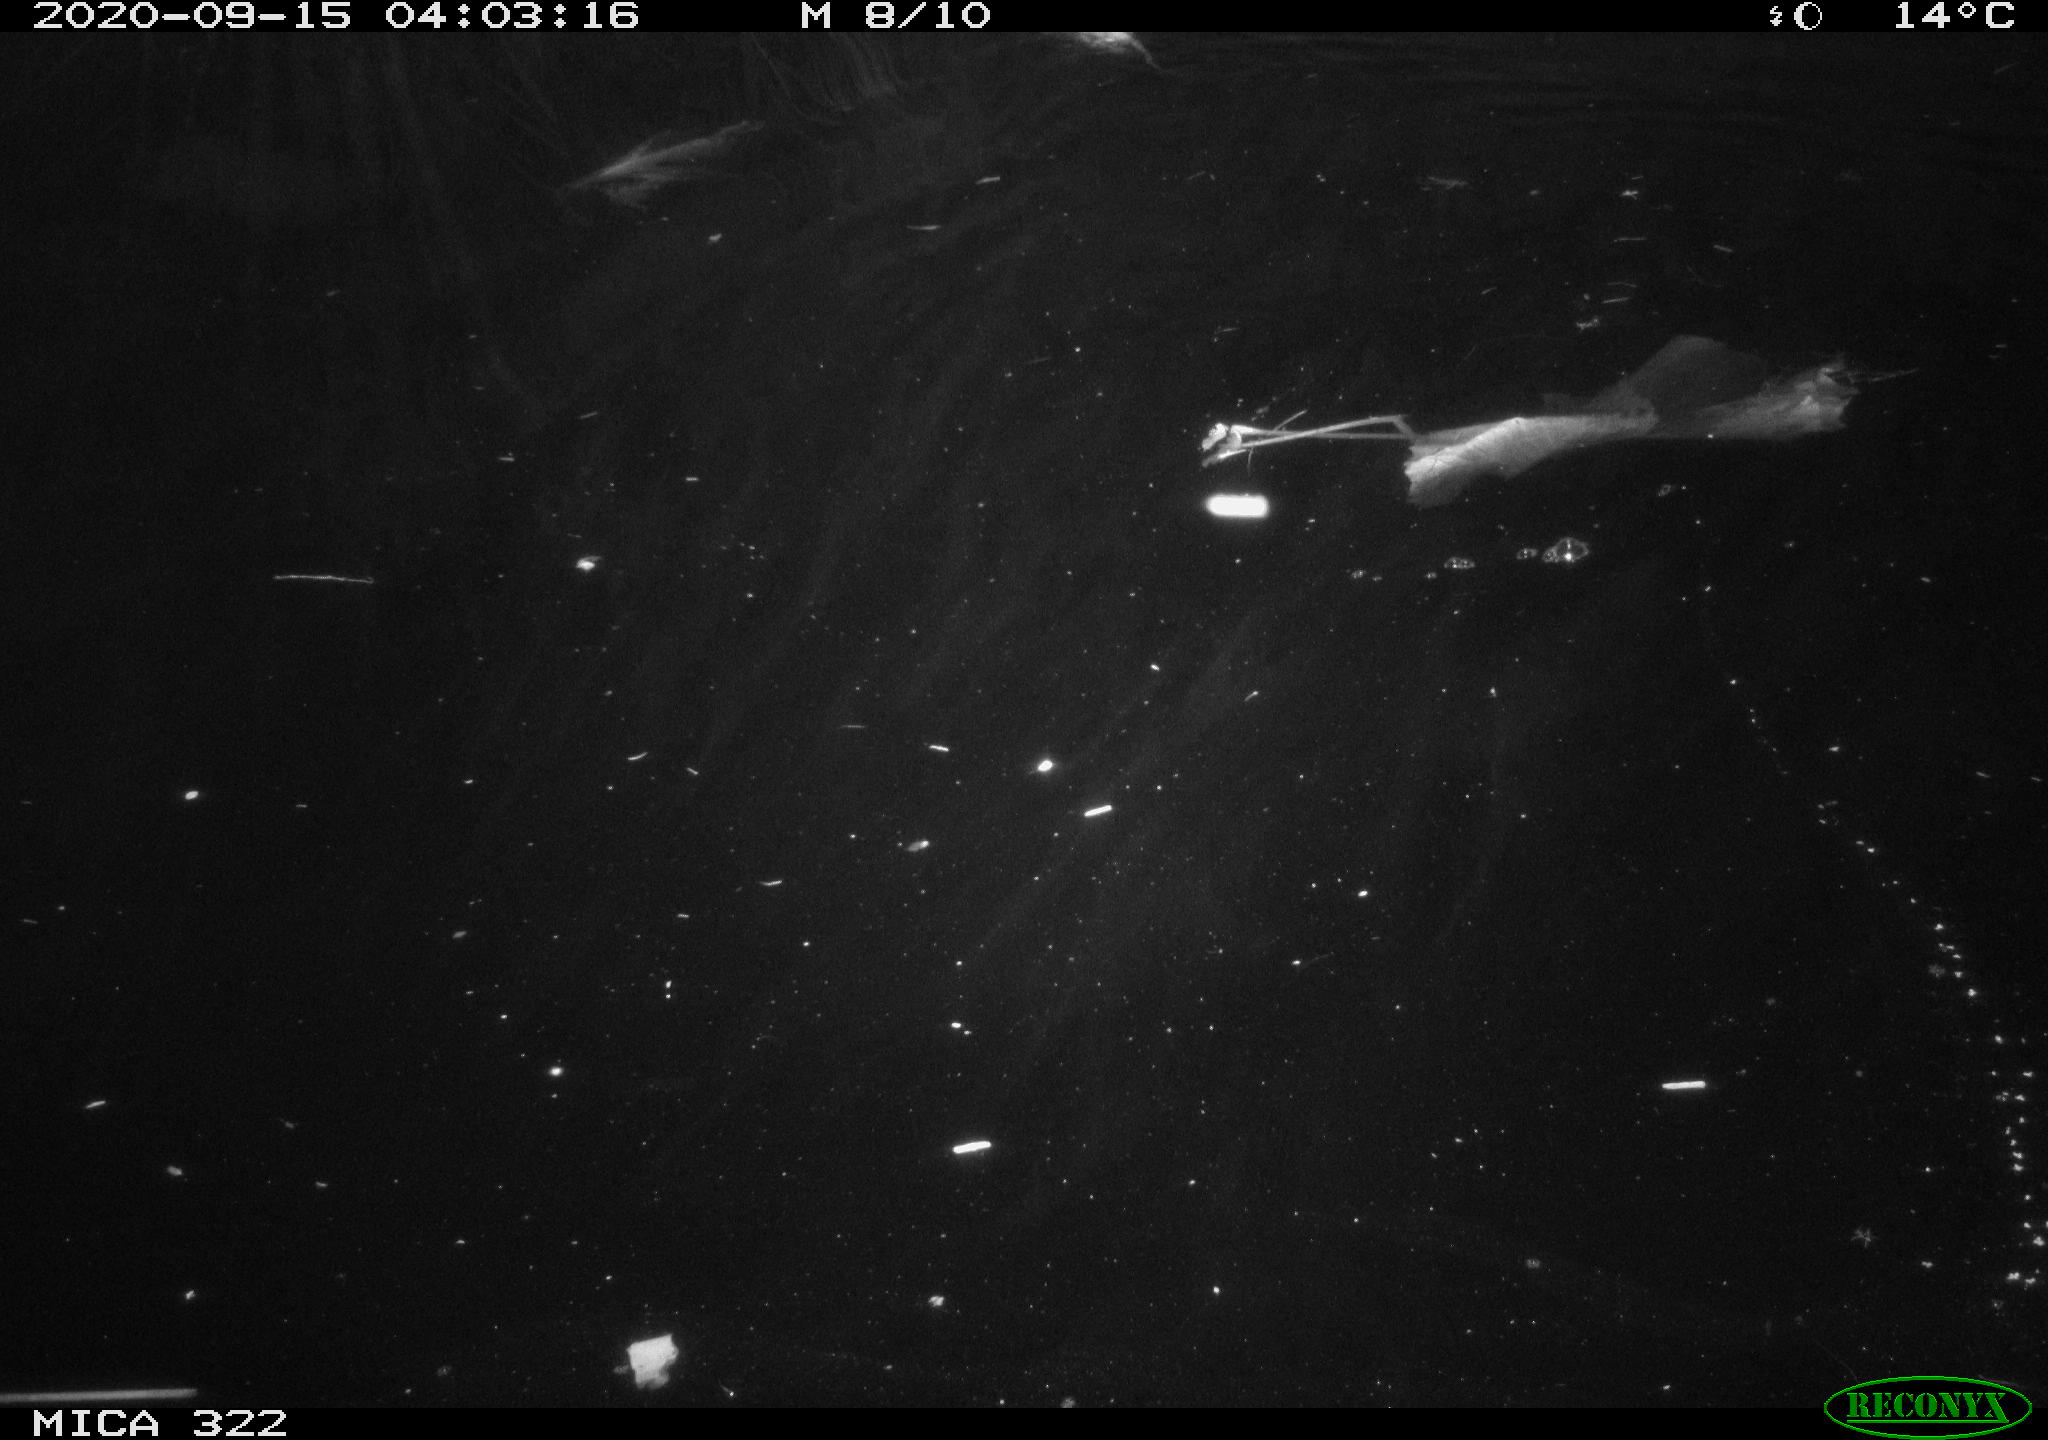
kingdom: Animalia
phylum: Chordata
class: Mammalia
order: Rodentia
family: Muridae
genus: Rattus
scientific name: Rattus norvegicus
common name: Brown rat
